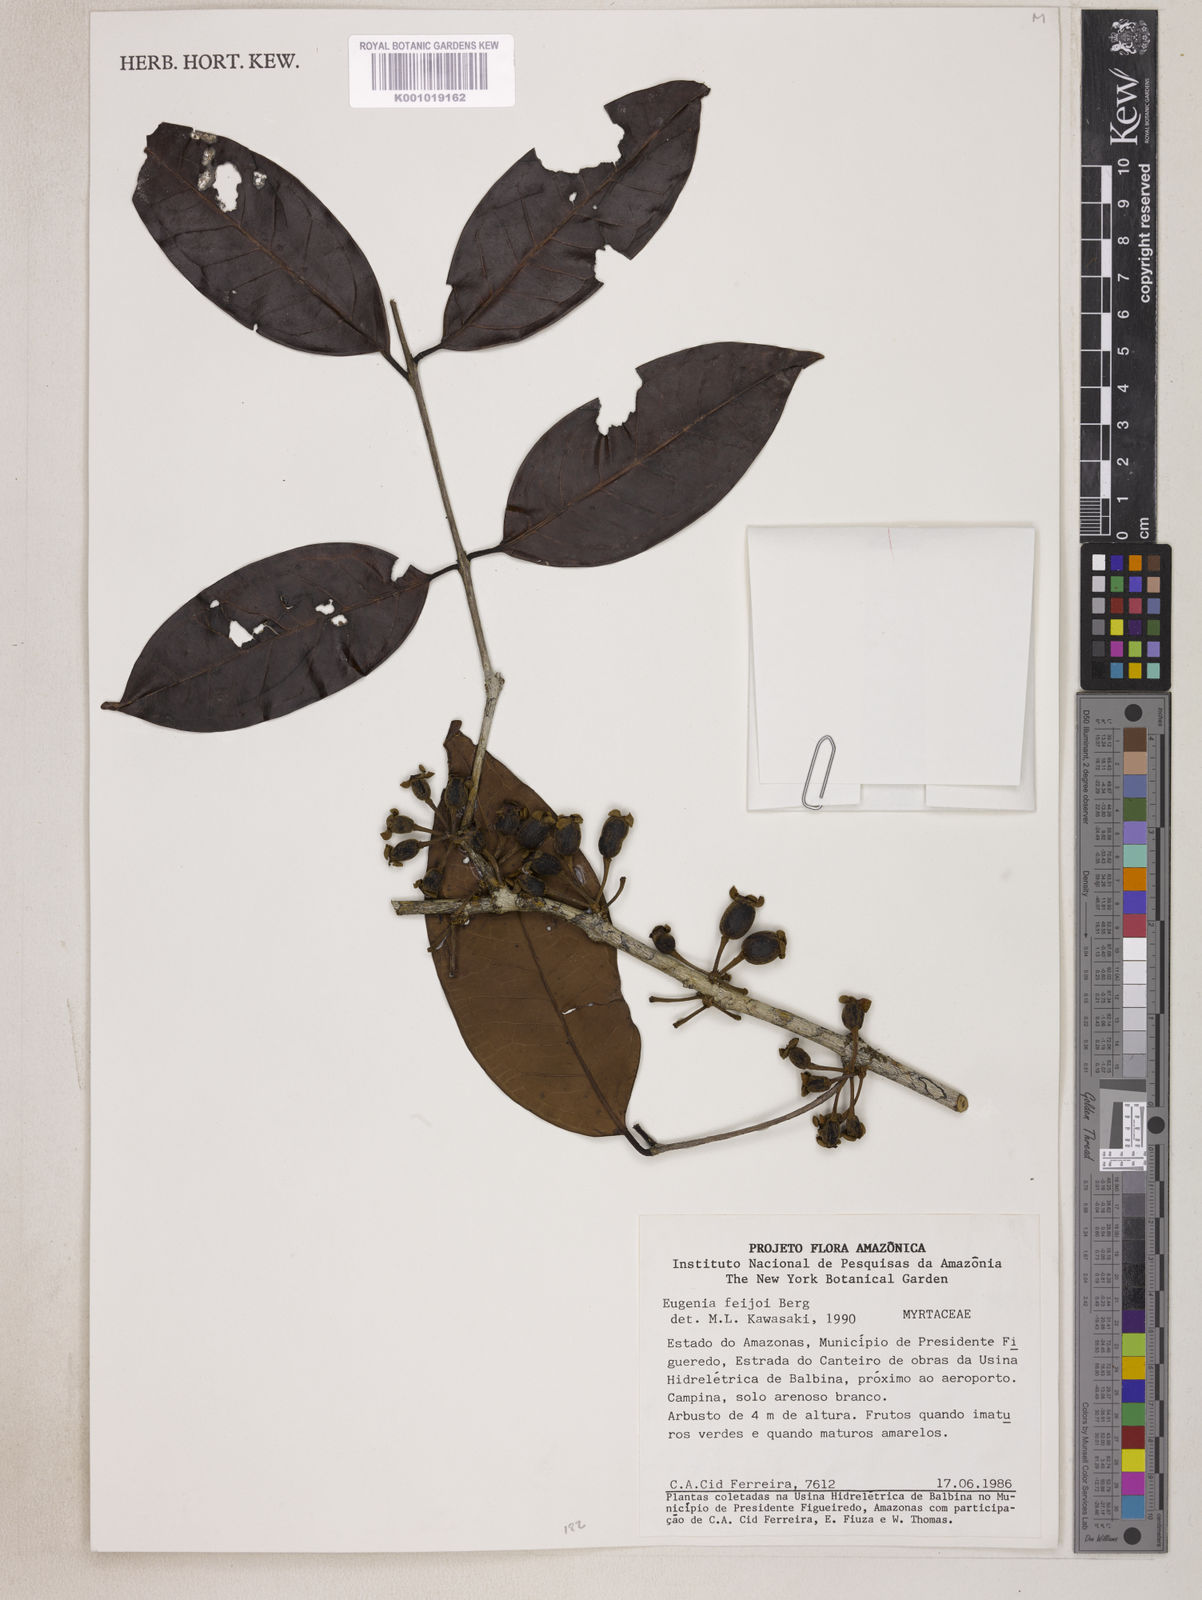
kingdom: Plantae
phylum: Tracheophyta
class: Magnoliopsida
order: Myrtales
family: Myrtaceae
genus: Eugenia
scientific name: Eugenia moschata
